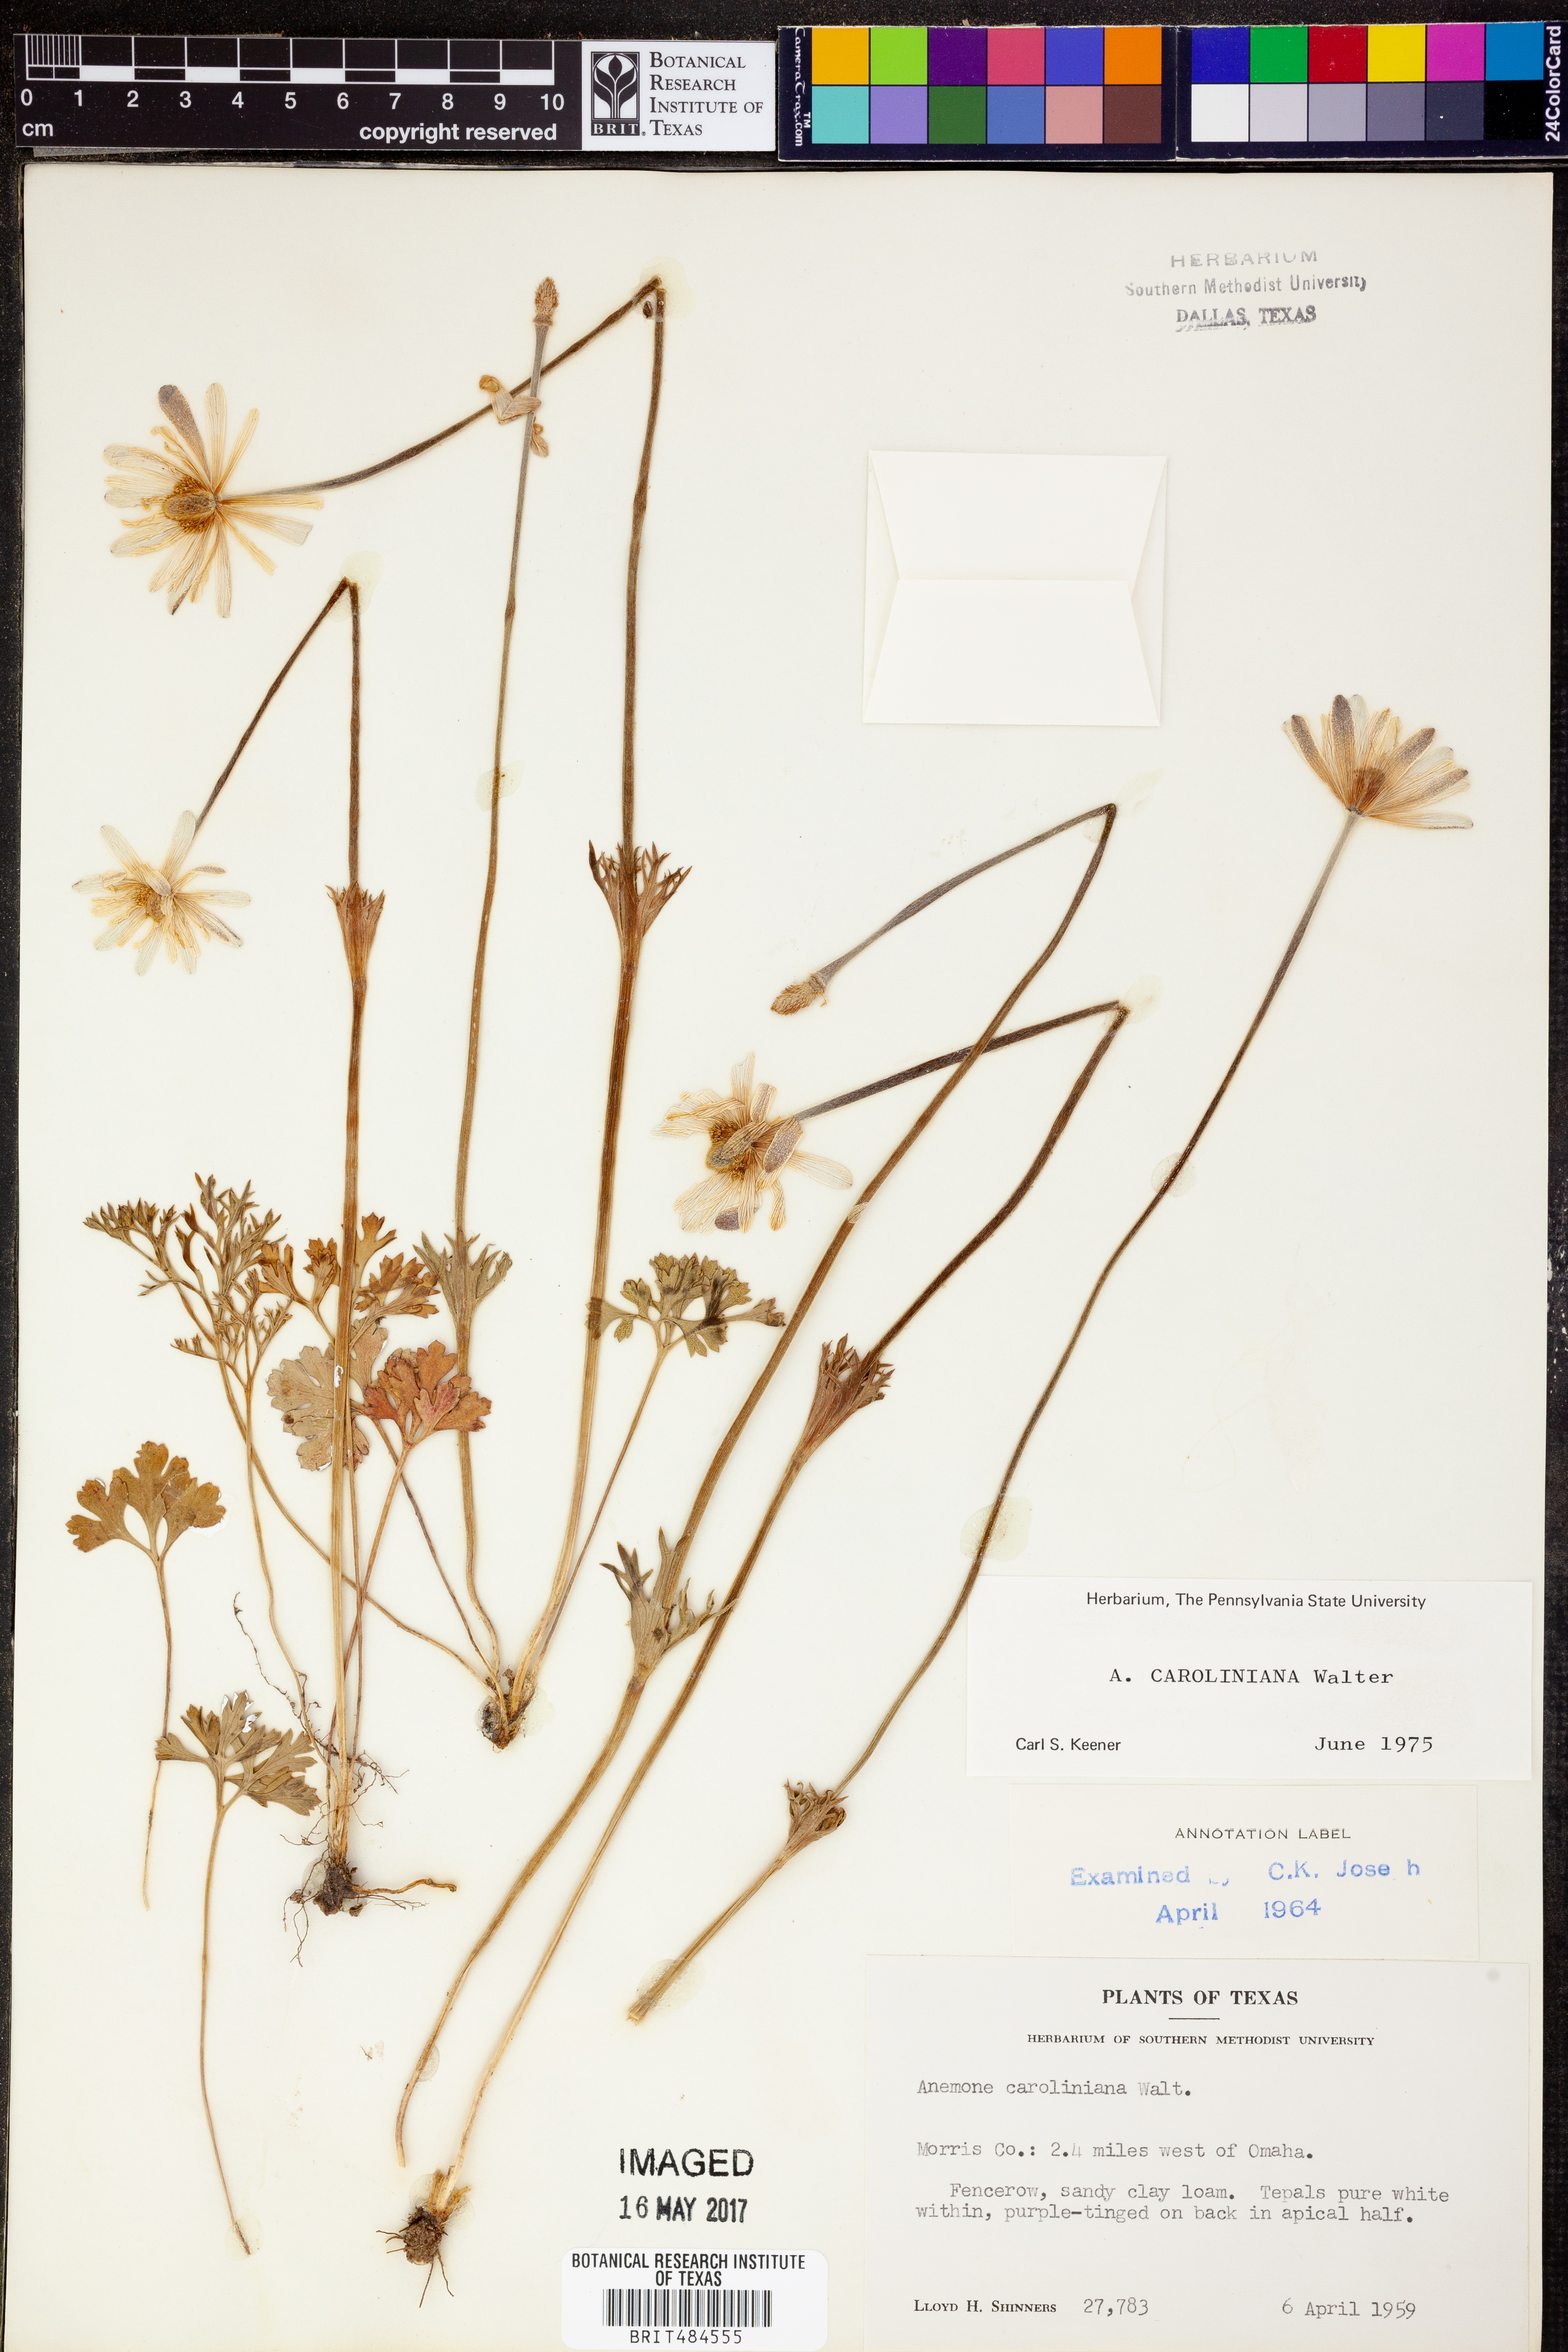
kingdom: Plantae
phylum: Tracheophyta
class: Magnoliopsida
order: Ranunculales
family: Ranunculaceae
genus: Anemone
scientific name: Anemone caroliniana
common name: Carolina anemone
